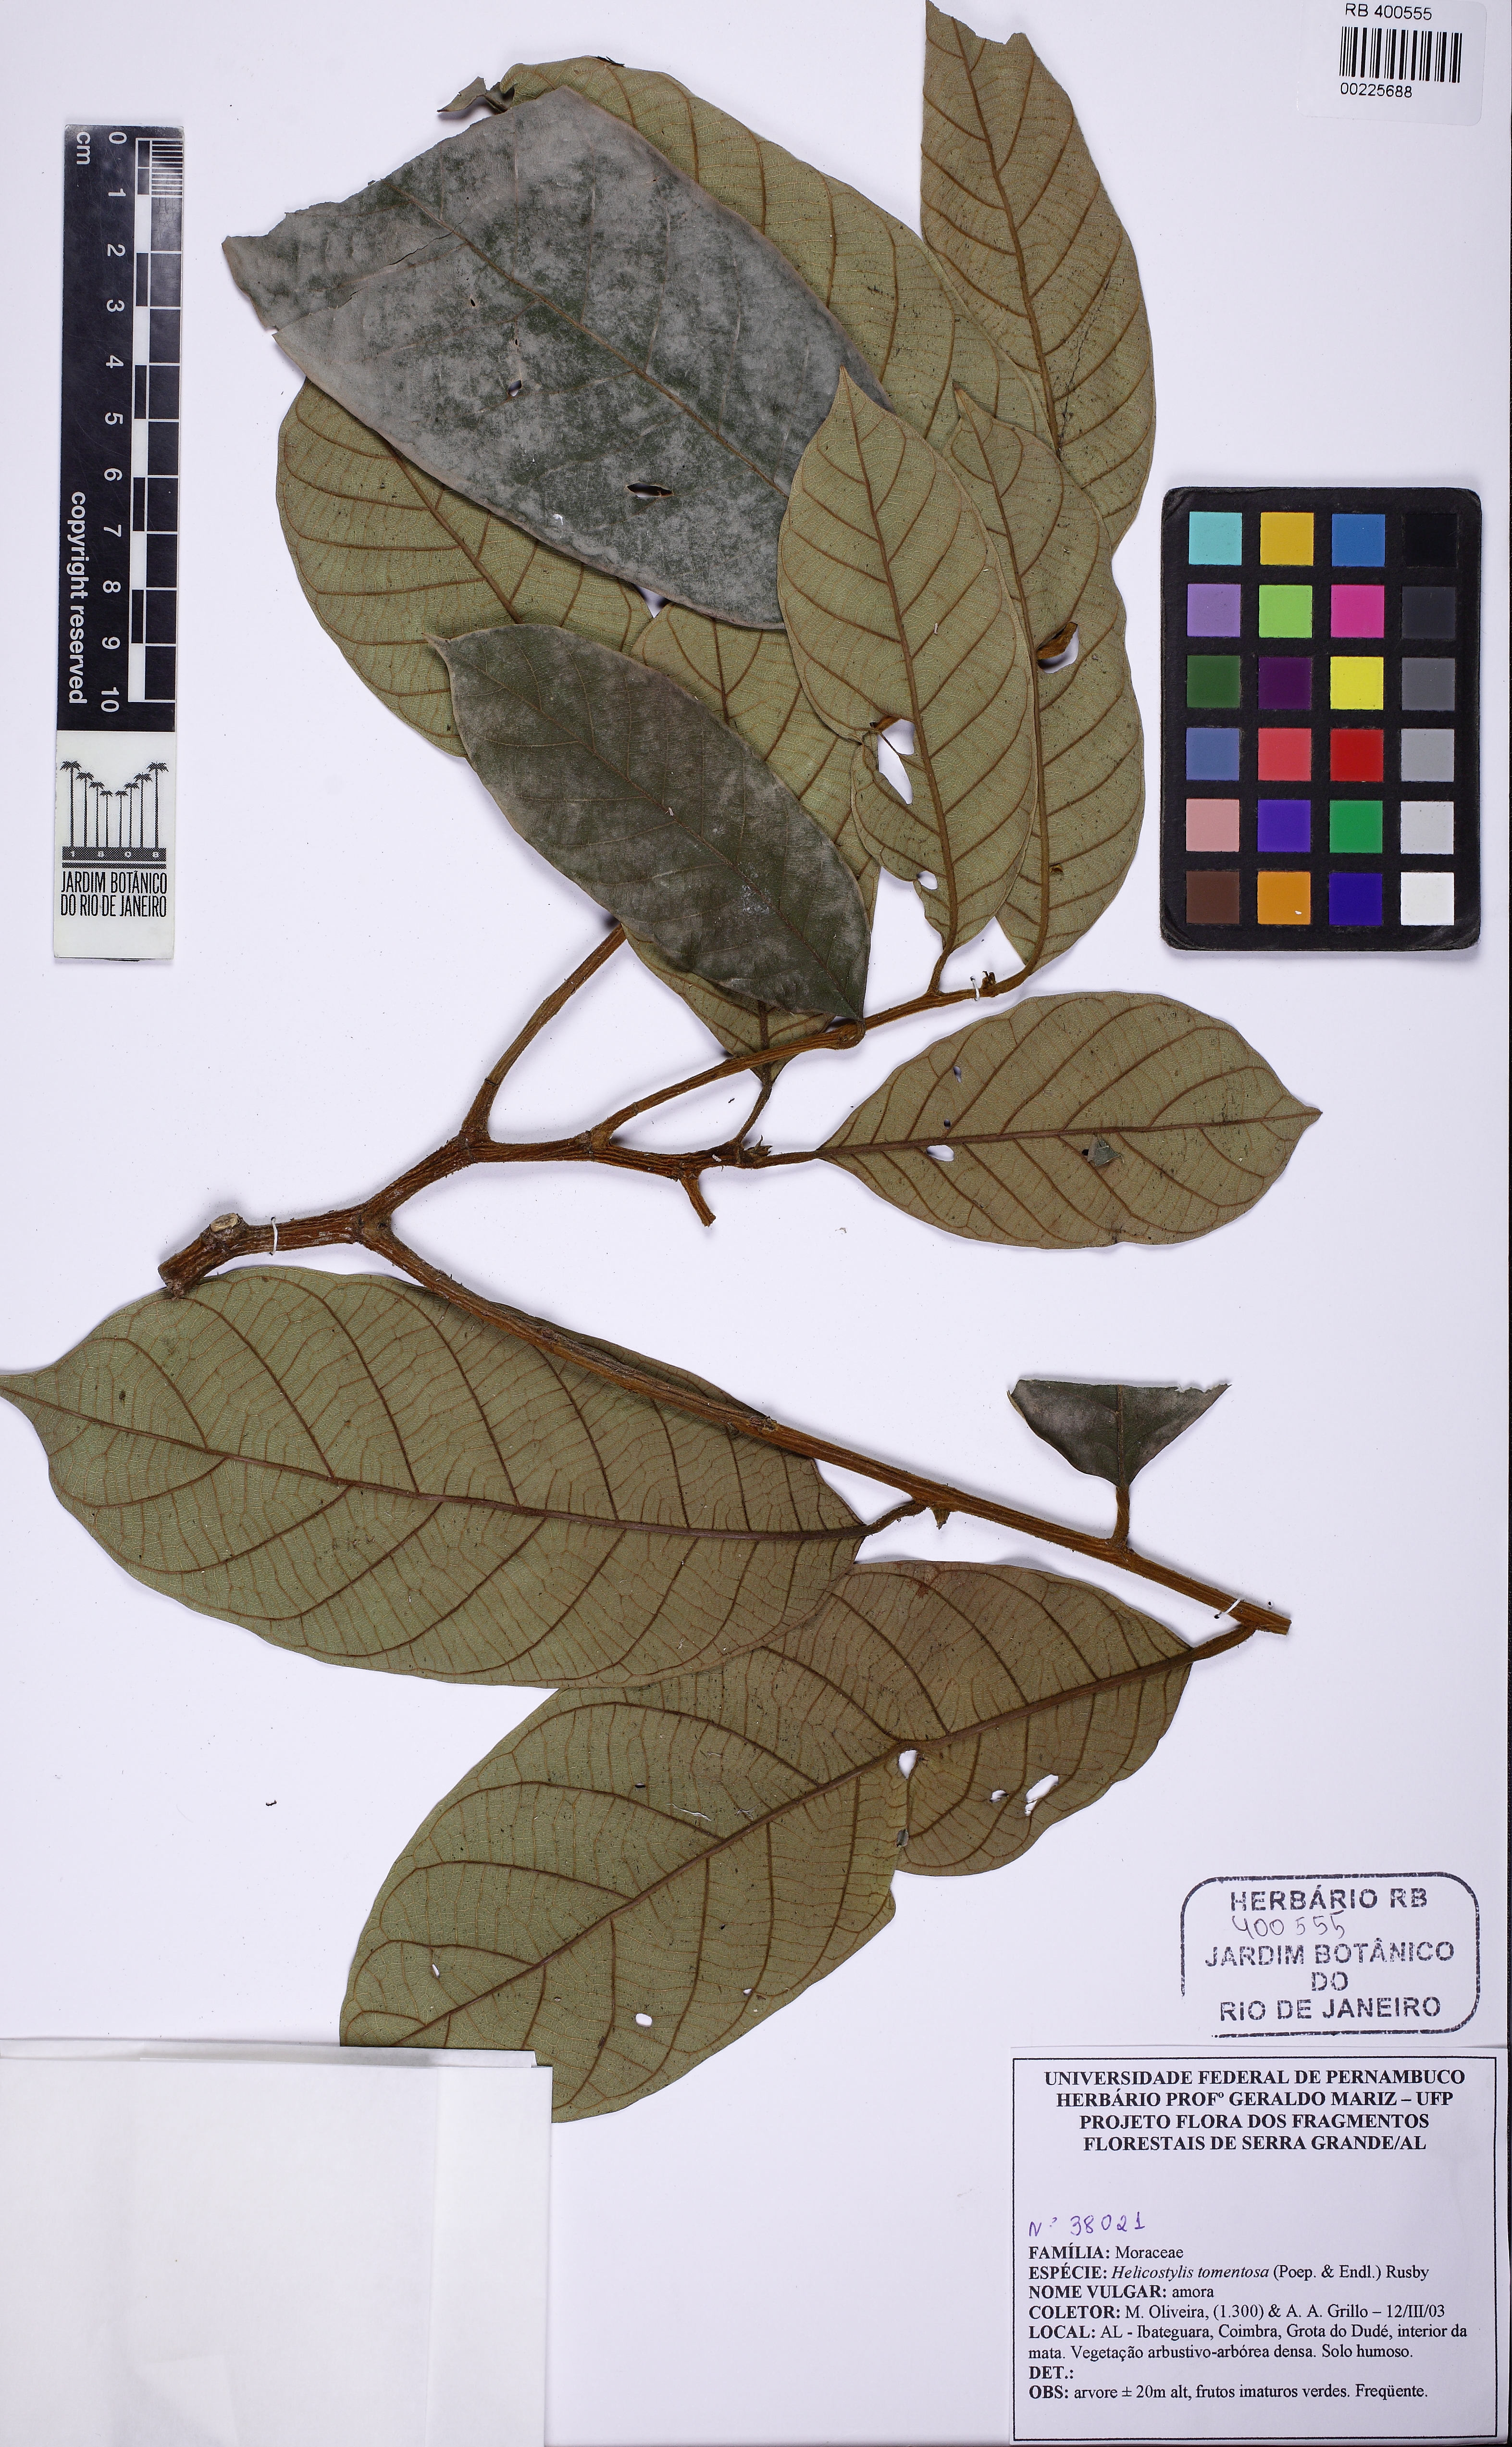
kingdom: Plantae
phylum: Tracheophyta
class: Magnoliopsida
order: Rosales
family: Moraceae
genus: Helicostylis
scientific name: Helicostylis tomentosa
